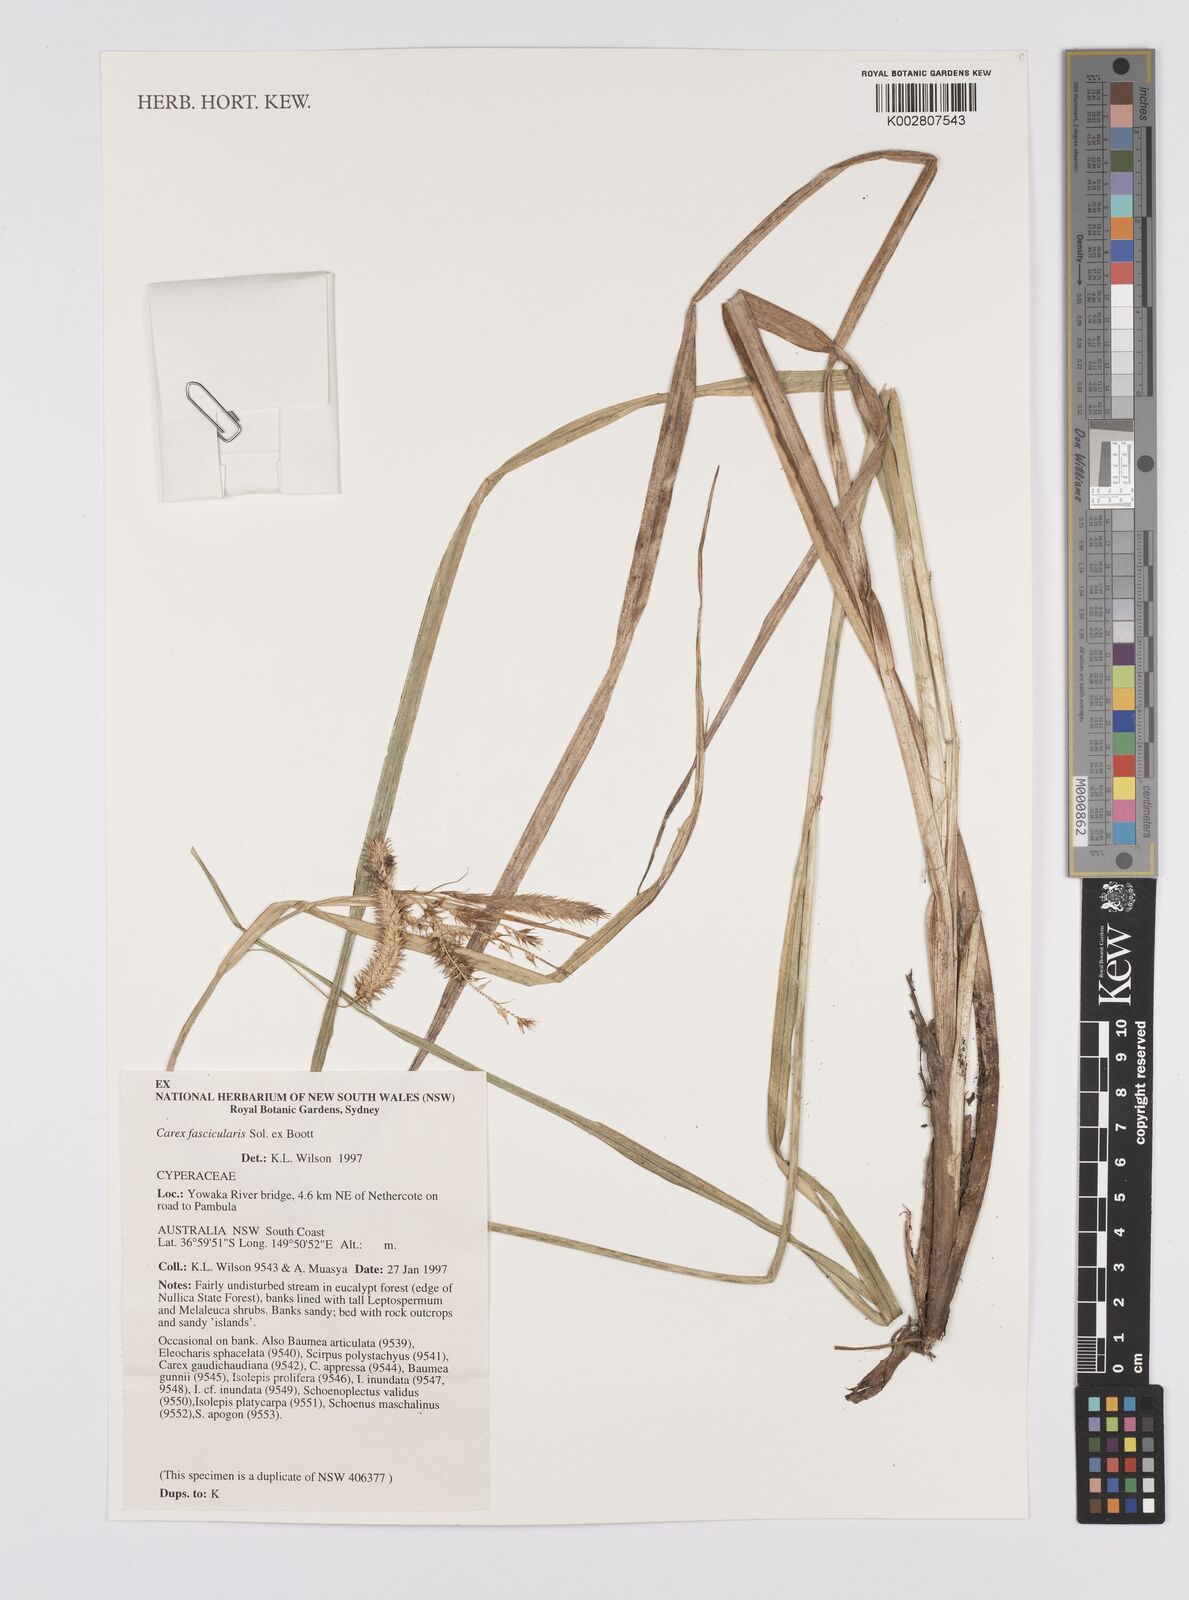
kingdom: Plantae
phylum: Tracheophyta
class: Liliopsida
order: Poales
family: Cyperaceae
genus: Carex
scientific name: Carex cespitosa
